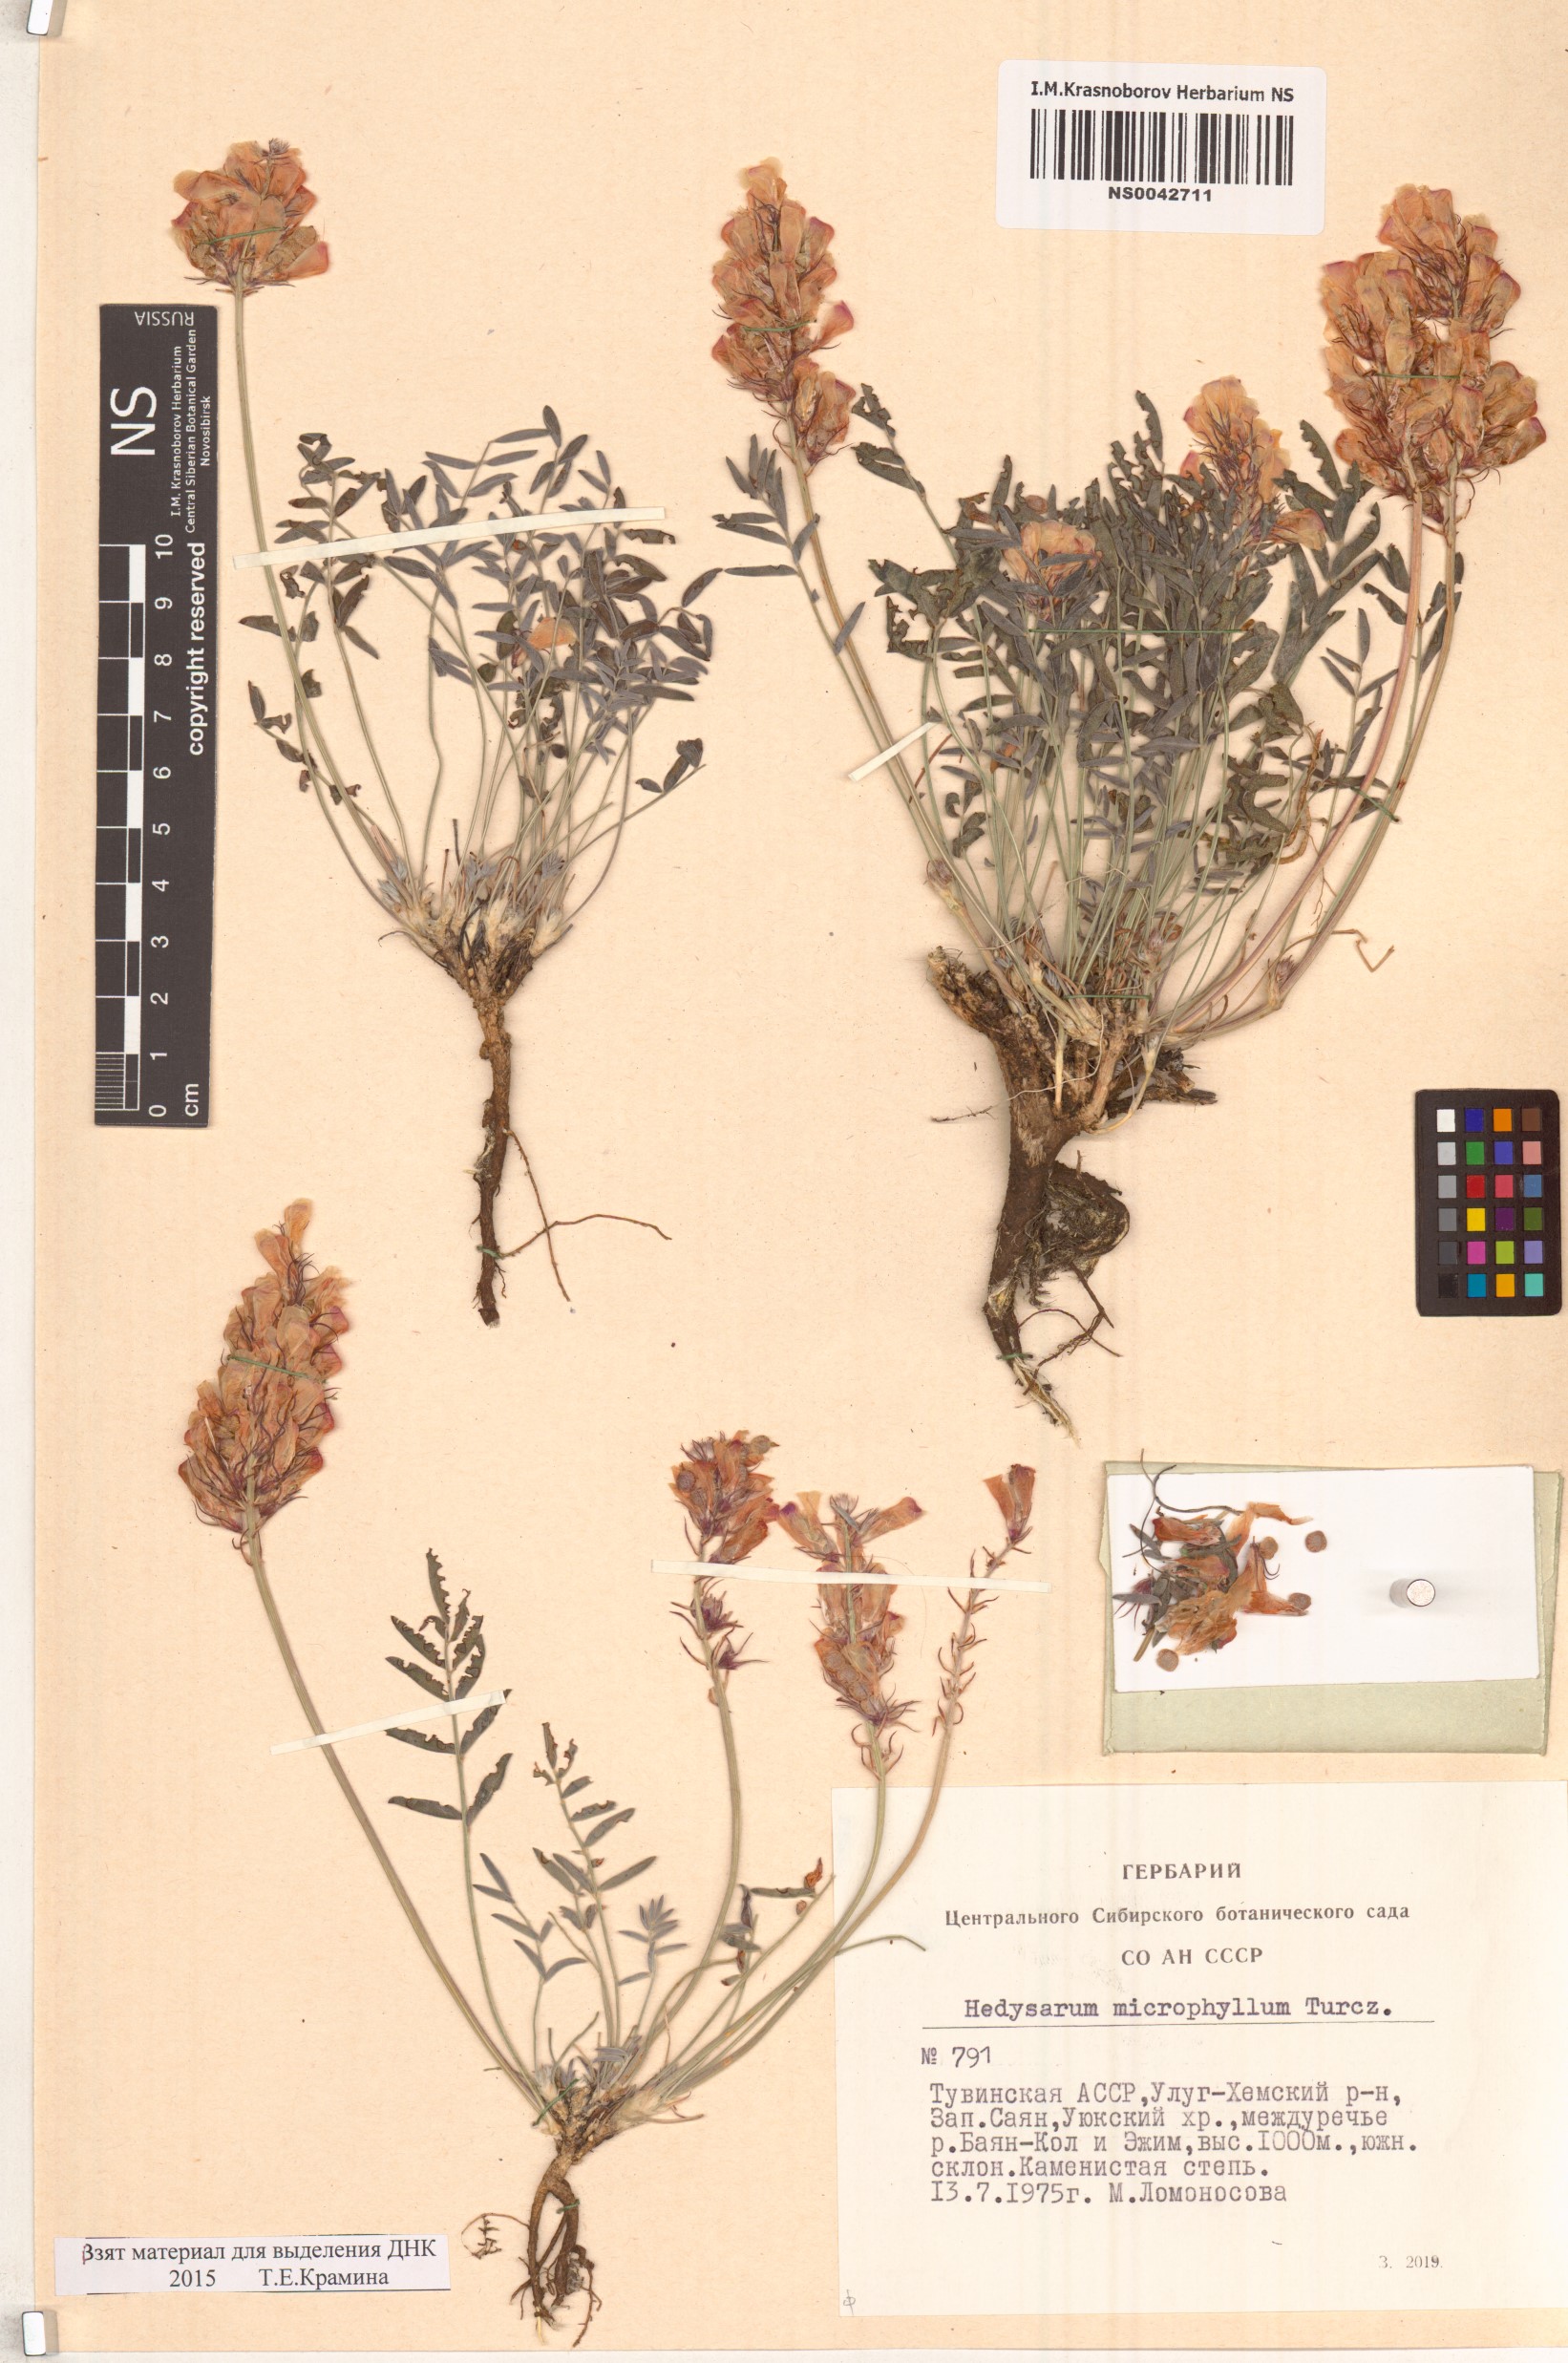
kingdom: Plantae
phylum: Tracheophyta
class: Magnoliopsida
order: Fabales
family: Fabaceae
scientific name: Fabaceae
